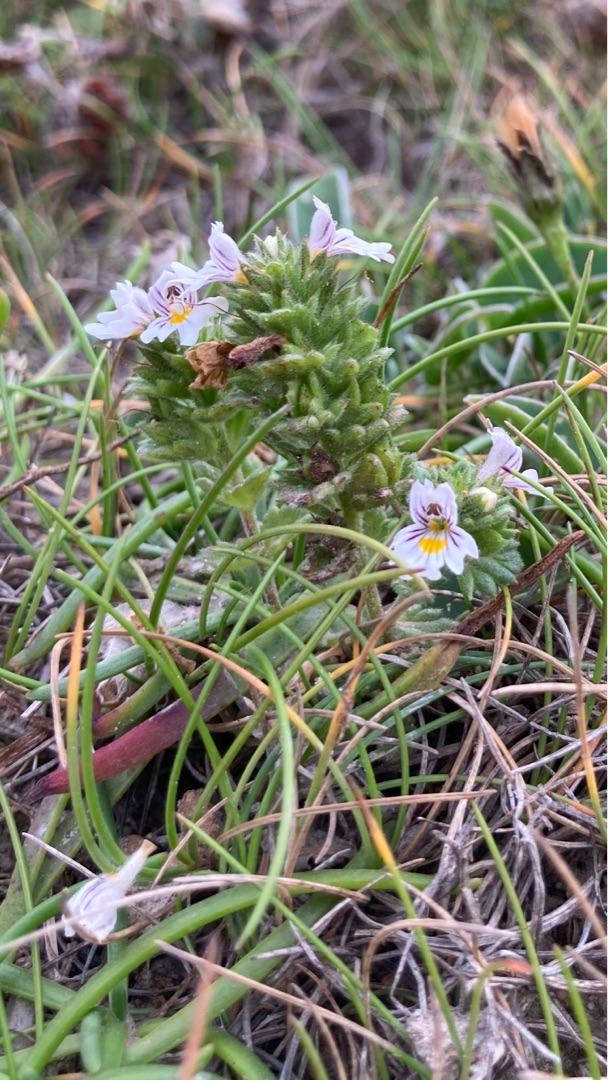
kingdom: Plantae
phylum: Tracheophyta
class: Magnoliopsida
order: Lamiales
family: Orobanchaceae
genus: Euphrasia
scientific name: Euphrasia dunensis
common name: Klit-øjentrøst
